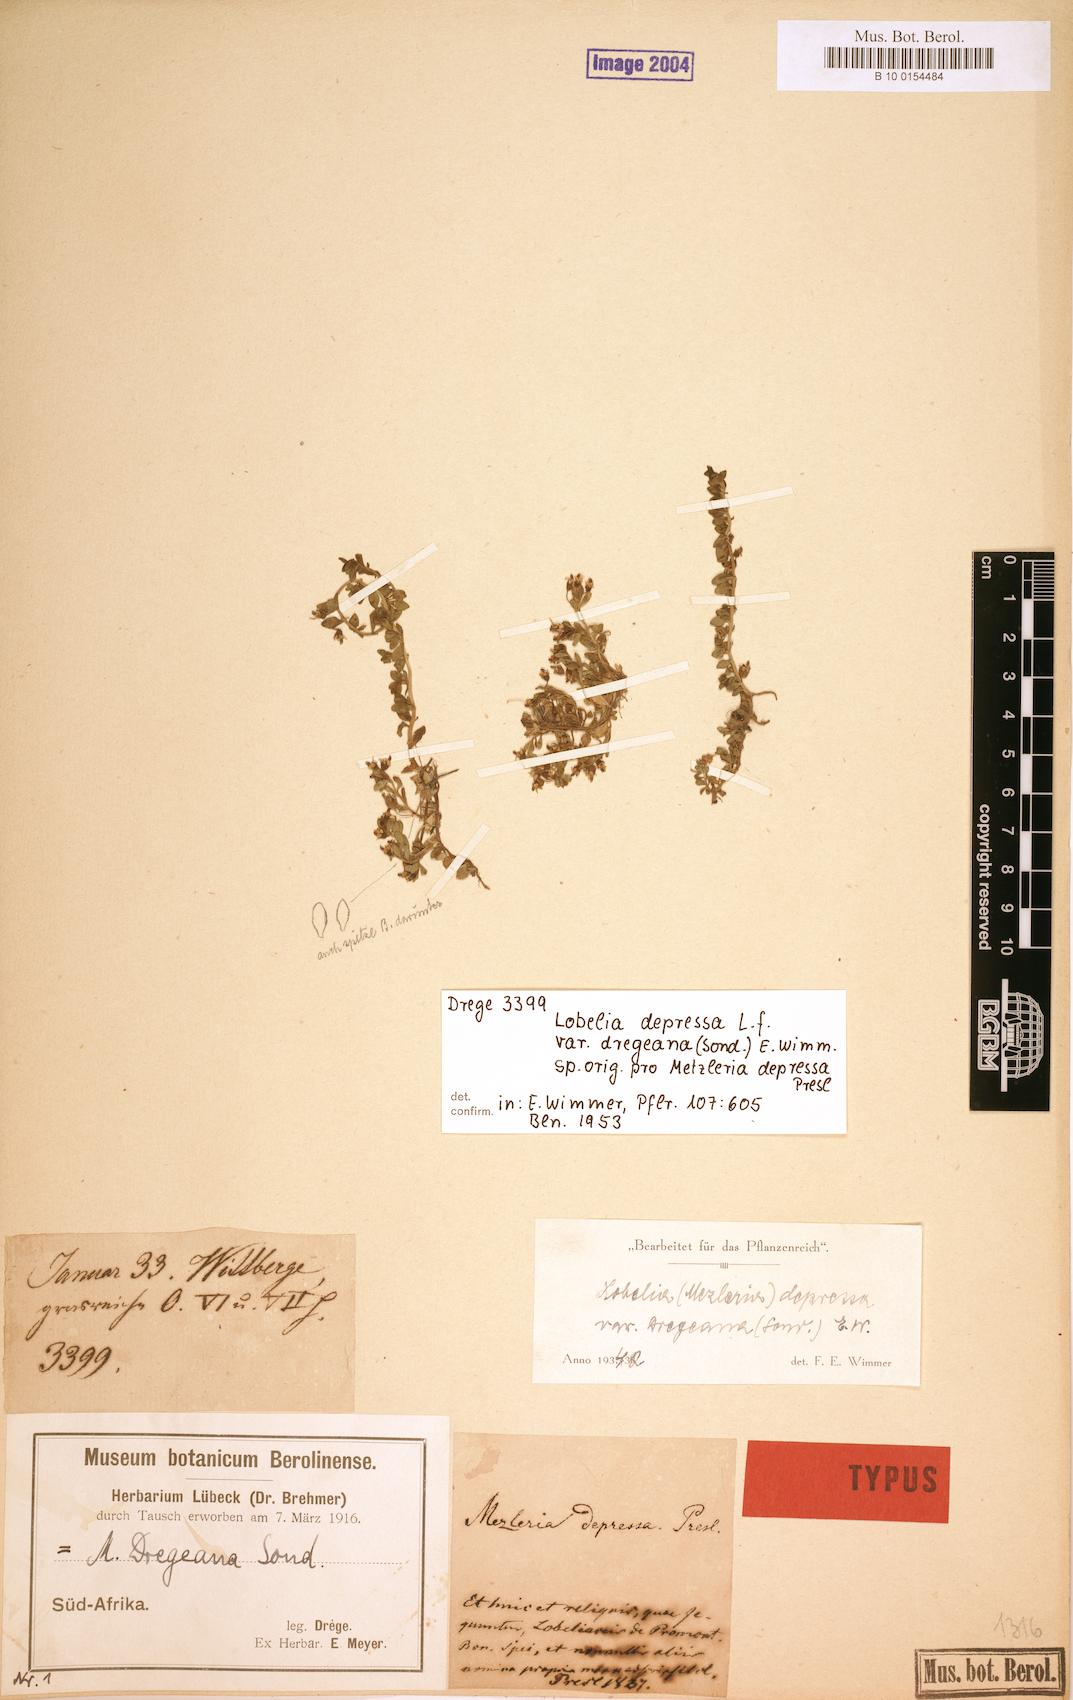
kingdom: Plantae
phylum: Tracheophyta
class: Magnoliopsida
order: Asterales
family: Campanulaceae
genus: Lobelia
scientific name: Lobelia sonderiana
